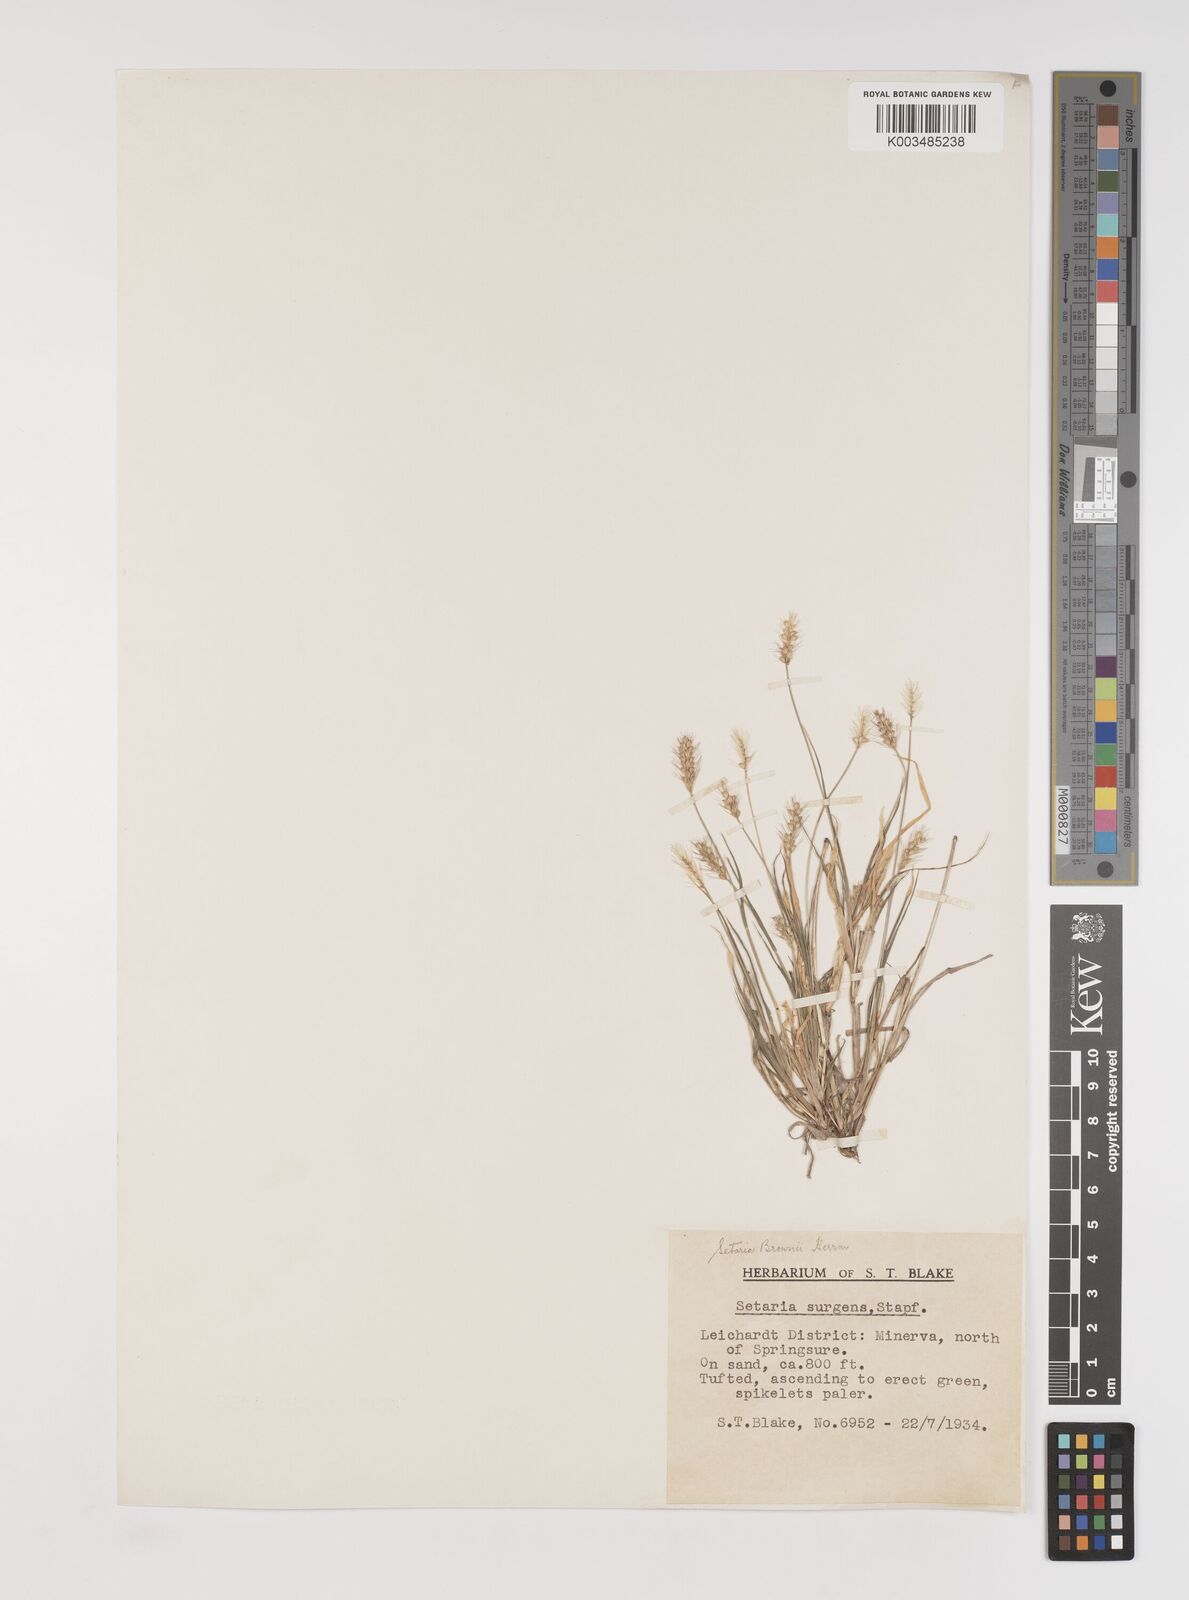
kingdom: Plantae
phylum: Tracheophyta
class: Liliopsida
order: Poales
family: Poaceae
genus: Setaria
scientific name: Setaria surgens
